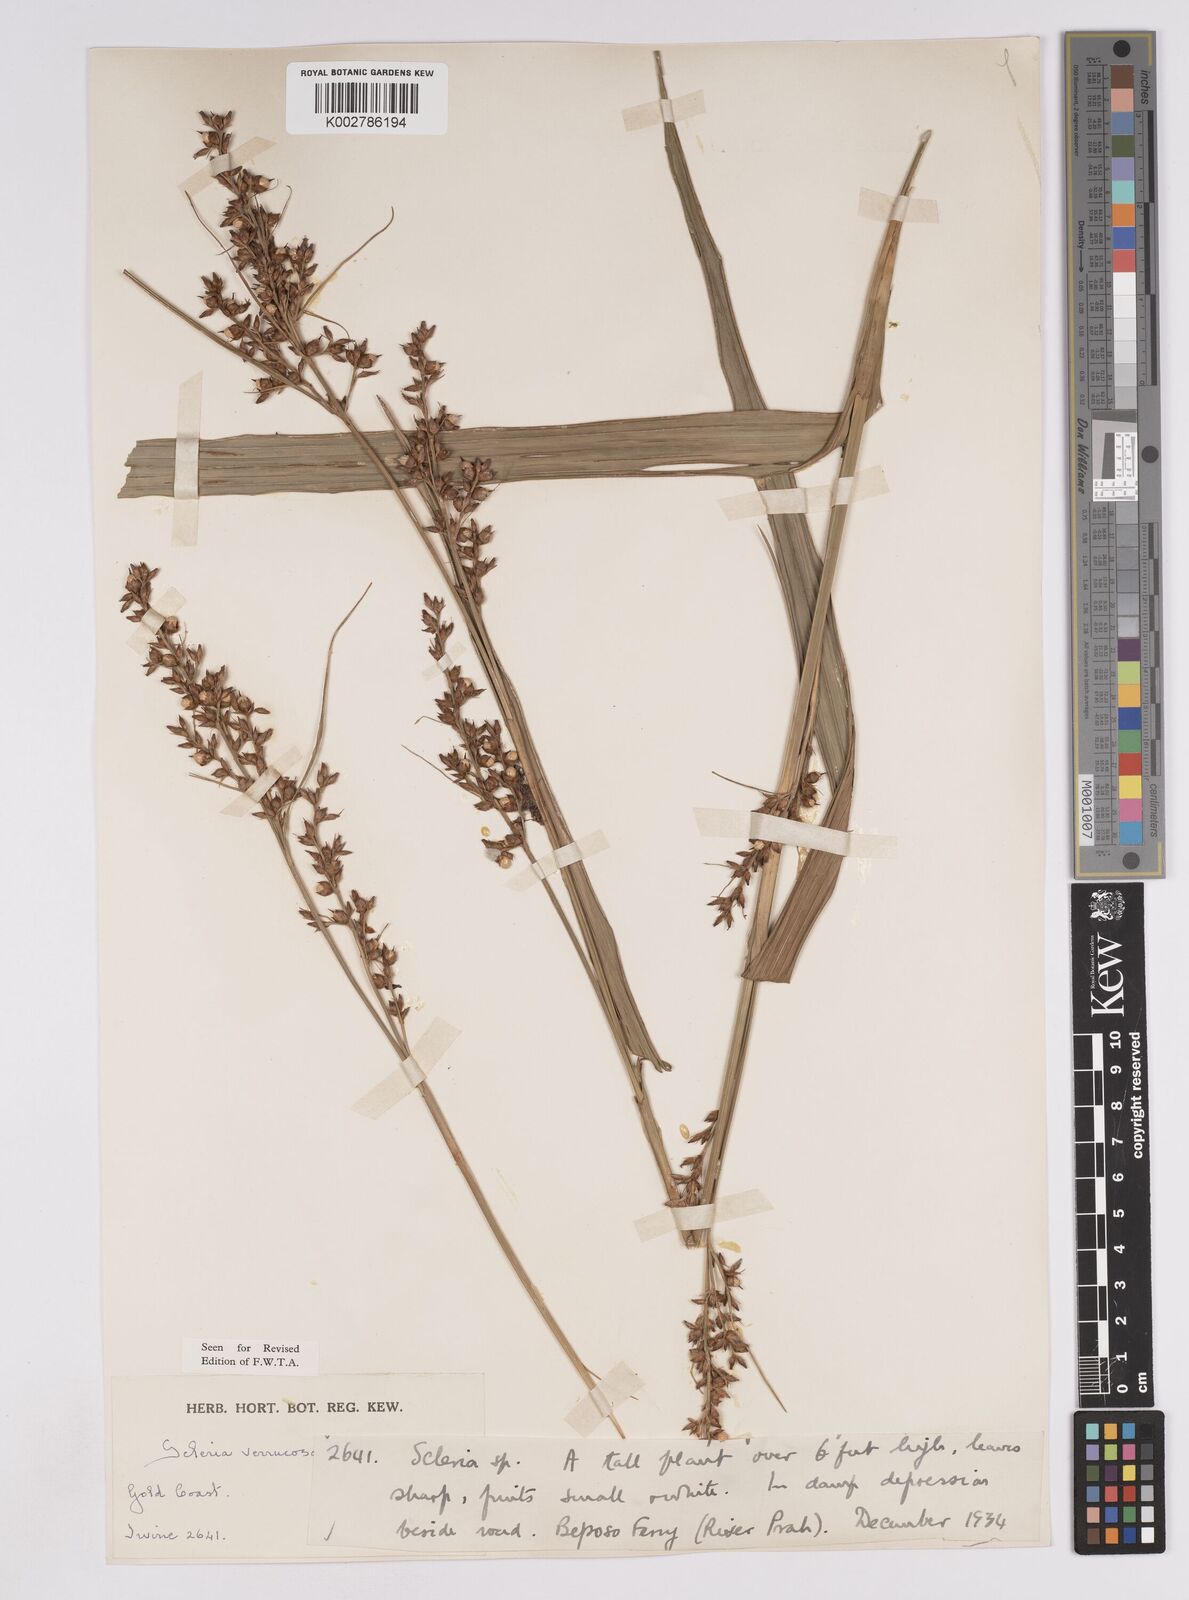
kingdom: Plantae
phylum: Tracheophyta
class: Liliopsida
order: Poales
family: Cyperaceae
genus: Scleria
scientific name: Scleria verrucosa
